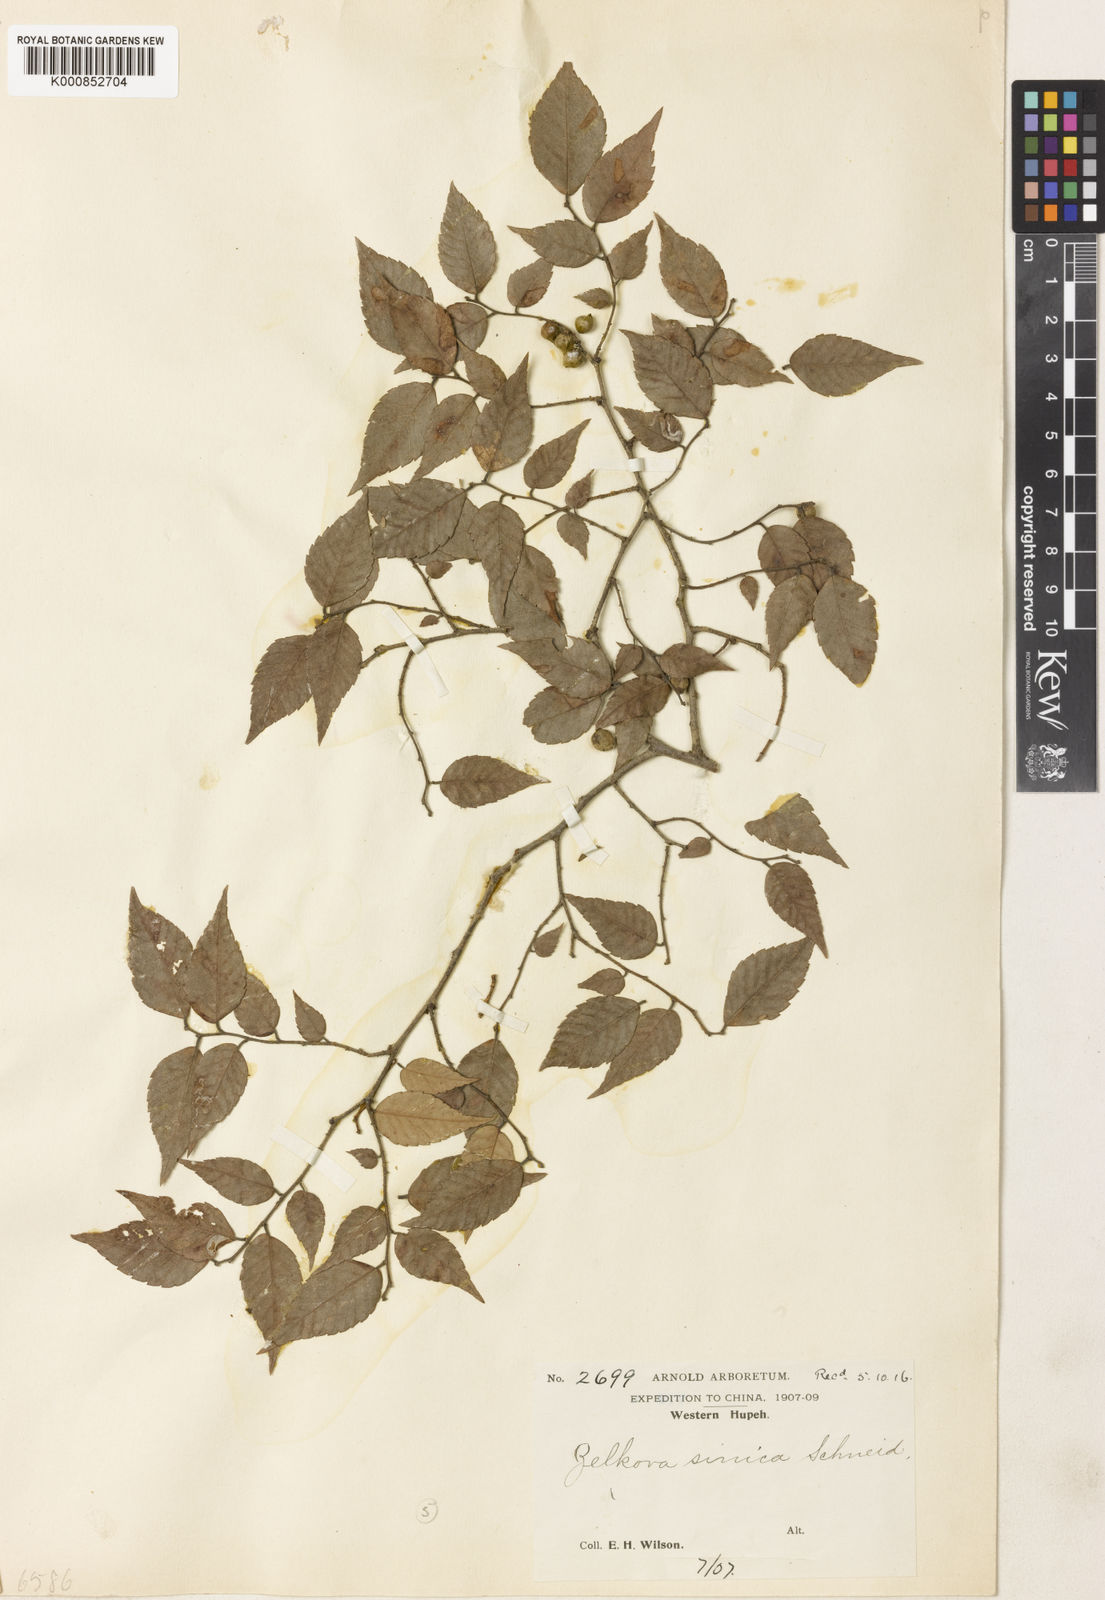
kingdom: Plantae
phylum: Tracheophyta
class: Magnoliopsida
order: Rosales
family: Ulmaceae
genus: Zelkova
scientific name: Zelkova sinica
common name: Chinese zelkova
